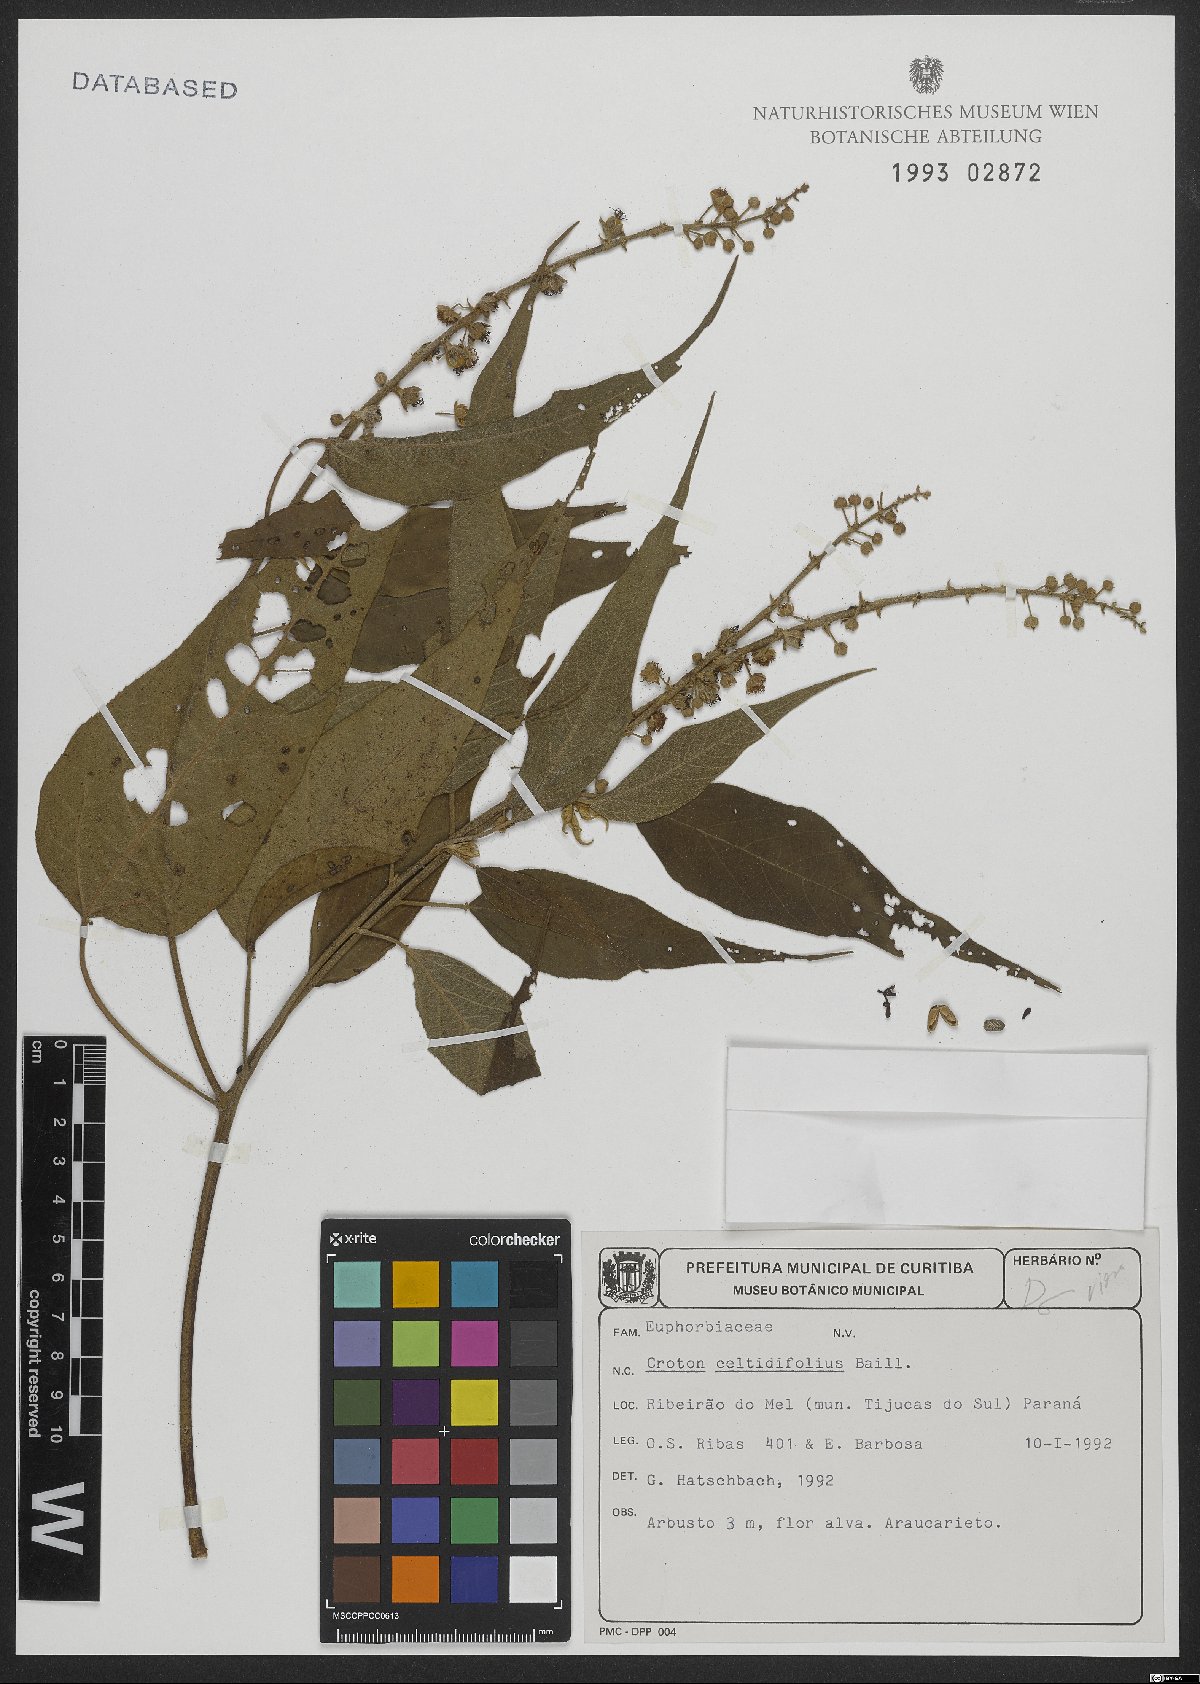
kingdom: Plantae
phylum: Tracheophyta
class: Magnoliopsida
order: Malpighiales
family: Euphorbiaceae
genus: Croton
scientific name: Croton celtidifolius
